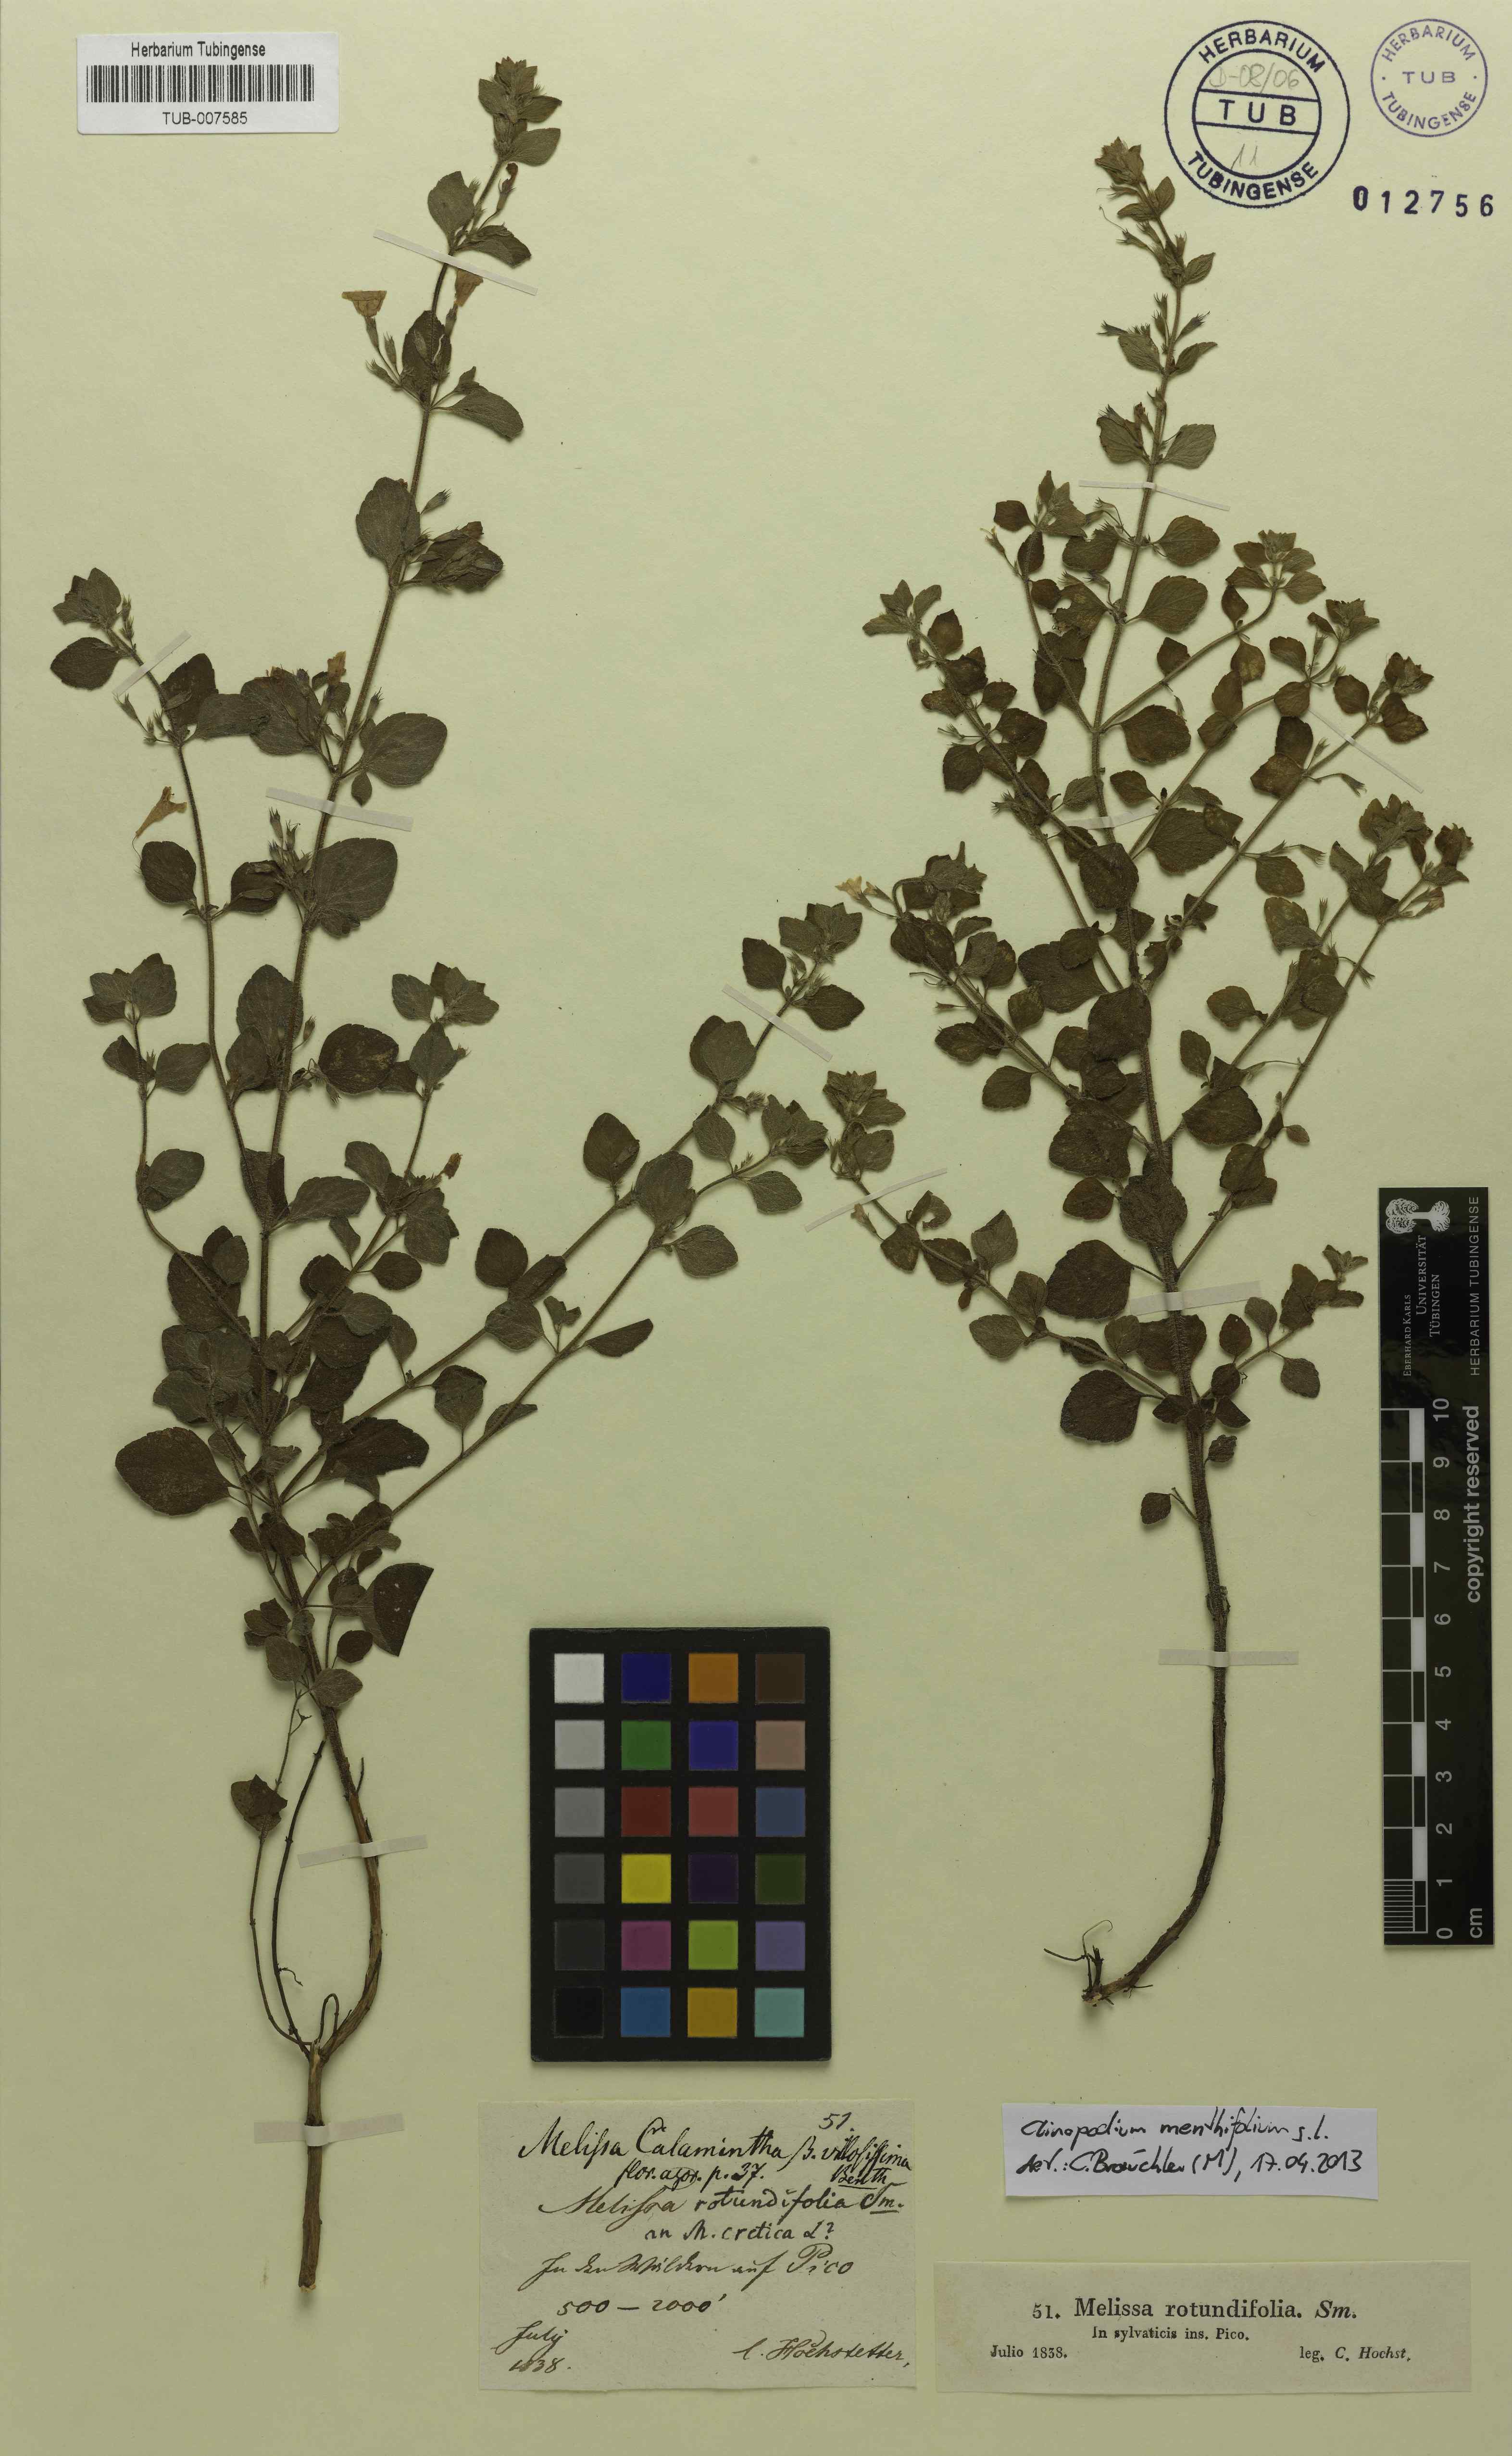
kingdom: Plantae
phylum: Tracheophyta
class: Magnoliopsida
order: Lamiales
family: Lamiaceae
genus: Clinopodium
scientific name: Clinopodium menthifolium
